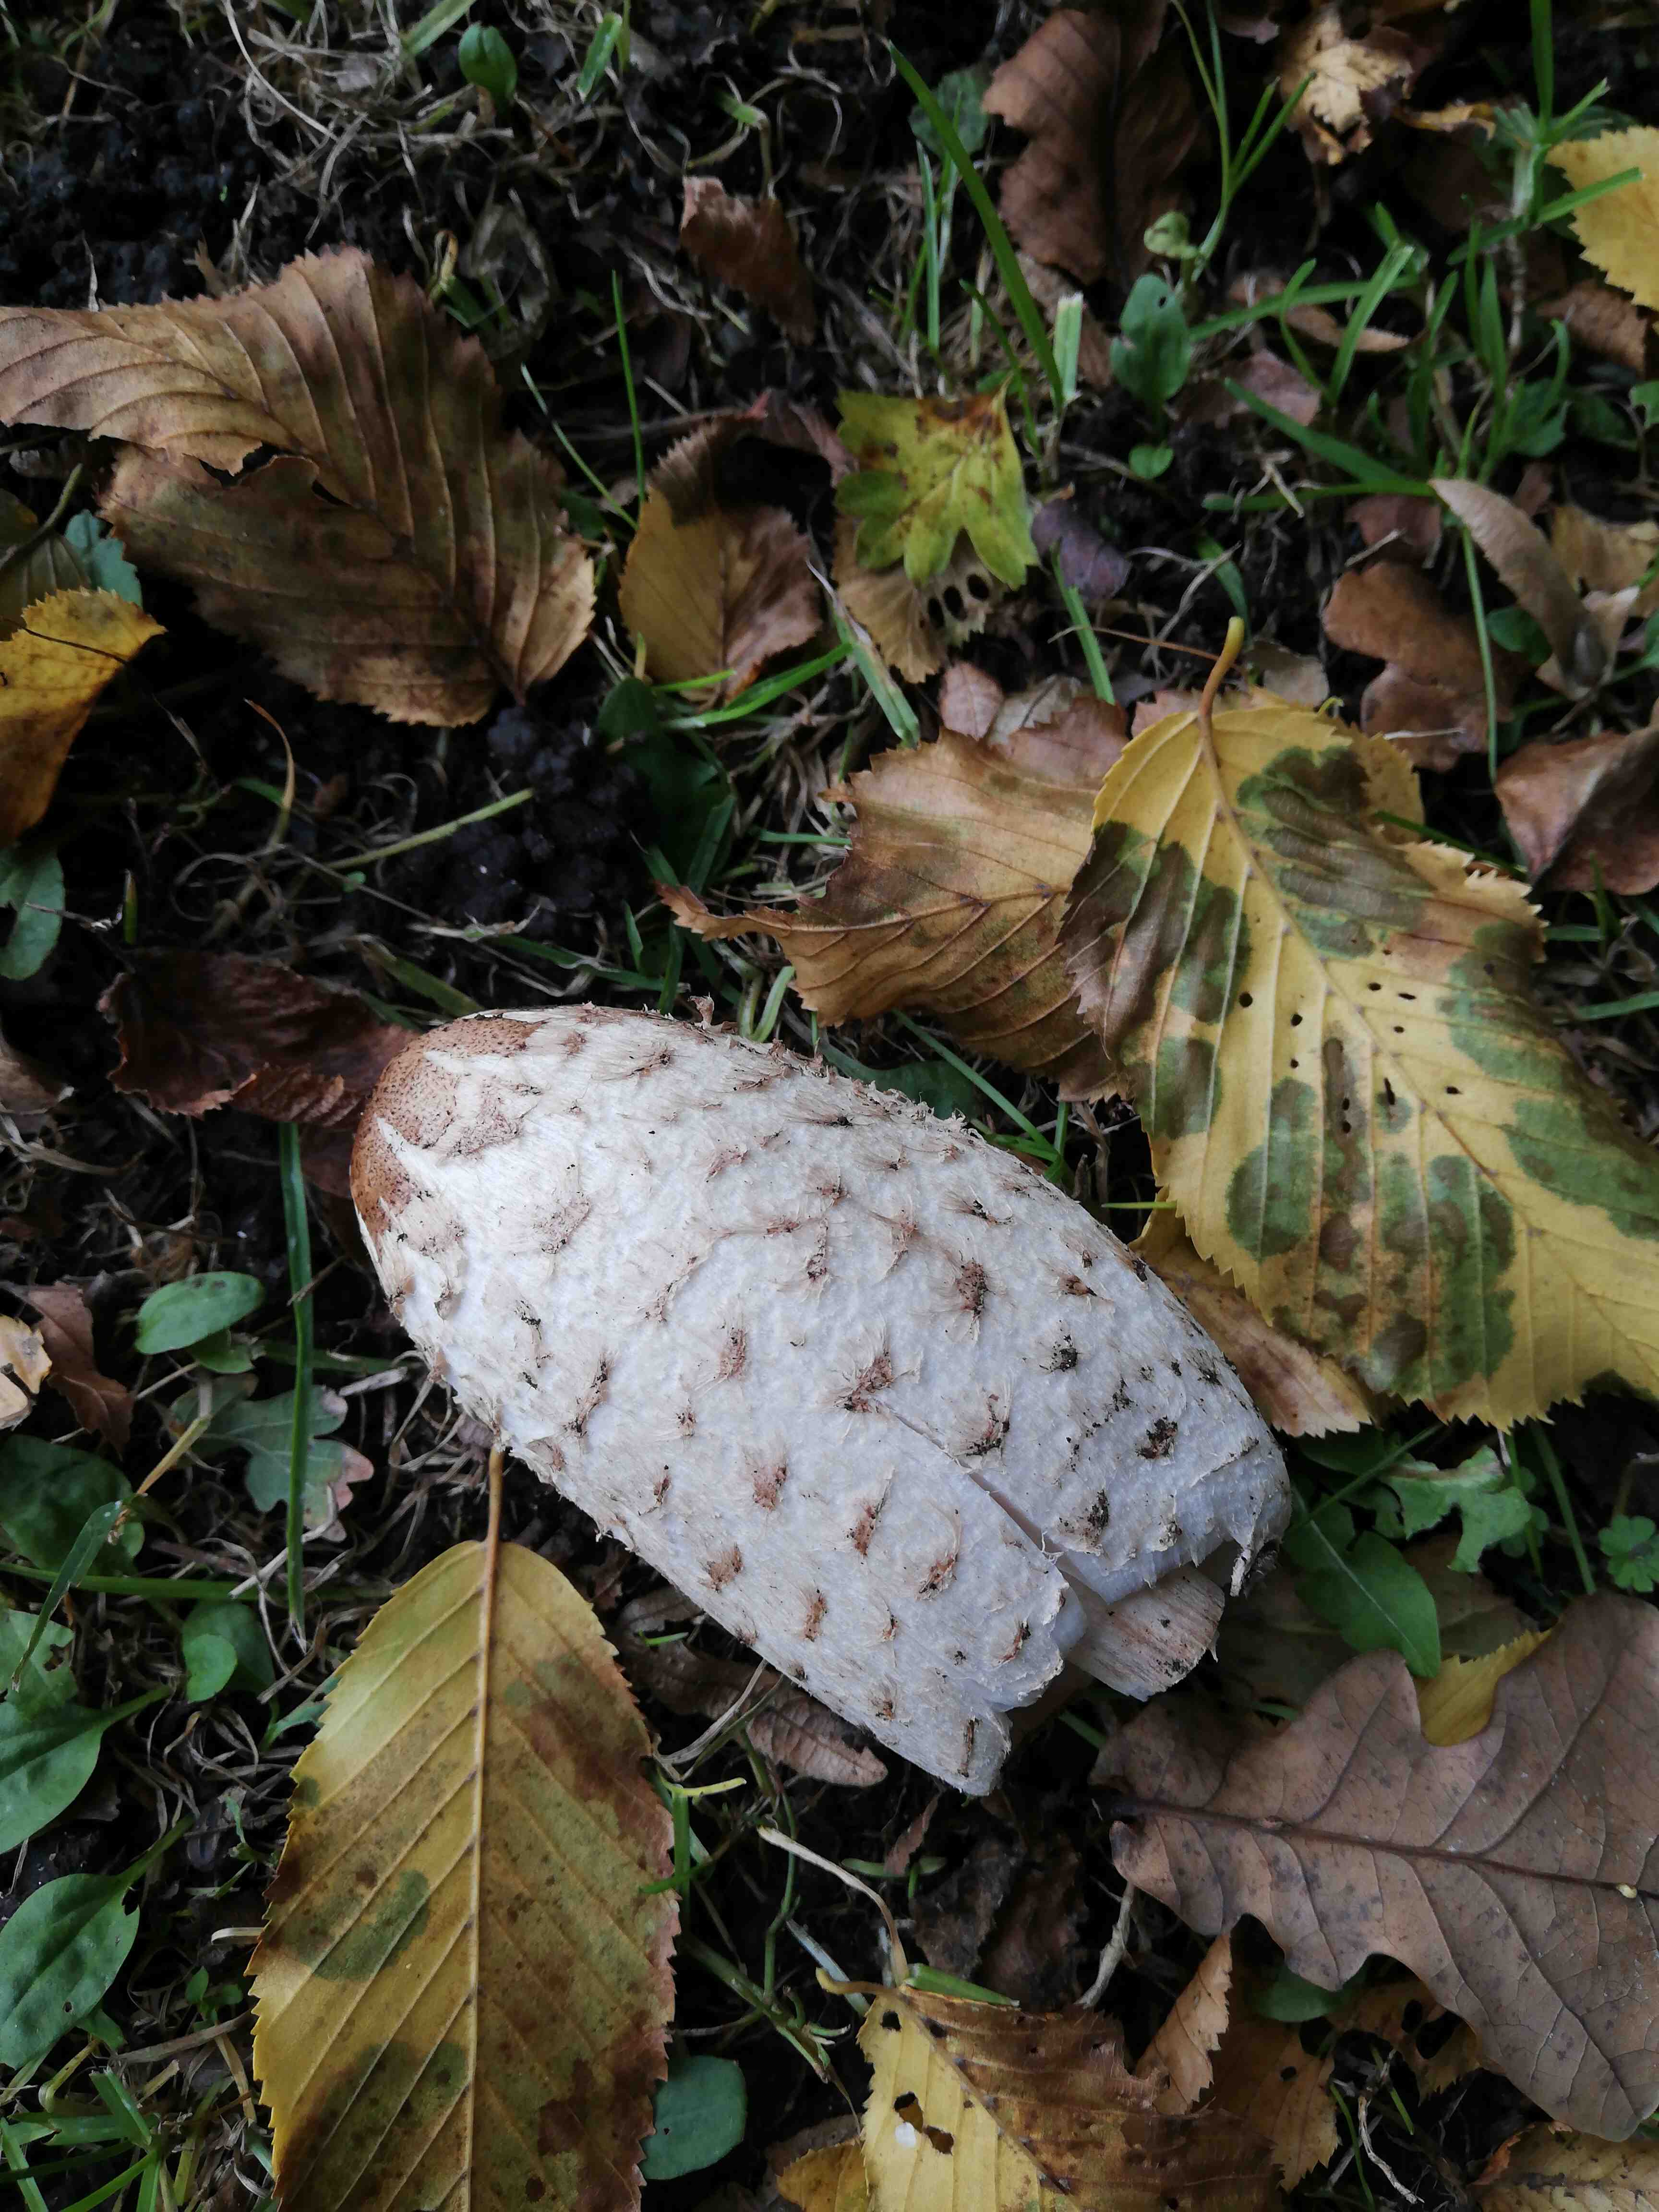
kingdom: Fungi
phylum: Basidiomycota
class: Agaricomycetes
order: Agaricales
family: Agaricaceae
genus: Coprinus
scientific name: Coprinus comatus
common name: stor parykhat
